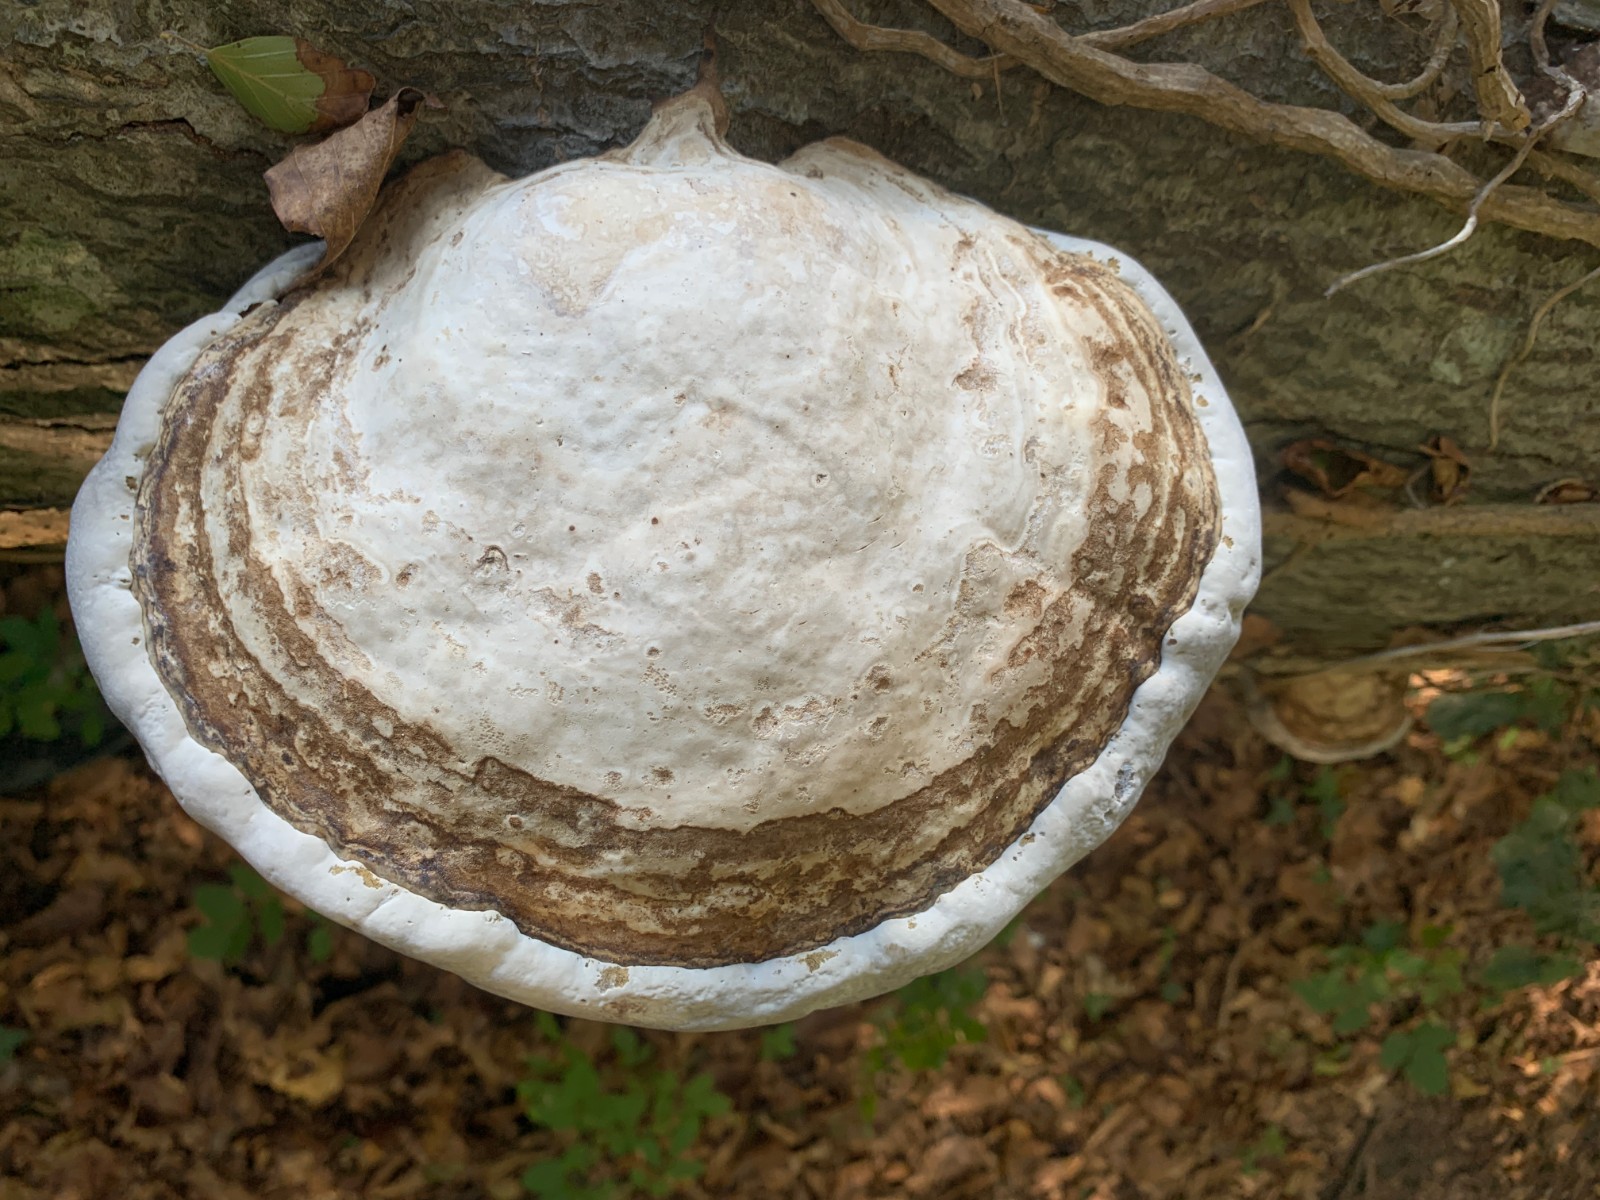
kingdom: Fungi
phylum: Basidiomycota
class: Agaricomycetes
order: Polyporales
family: Polyporaceae
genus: Fomes
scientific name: Fomes fomentarius
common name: tøndersvamp
